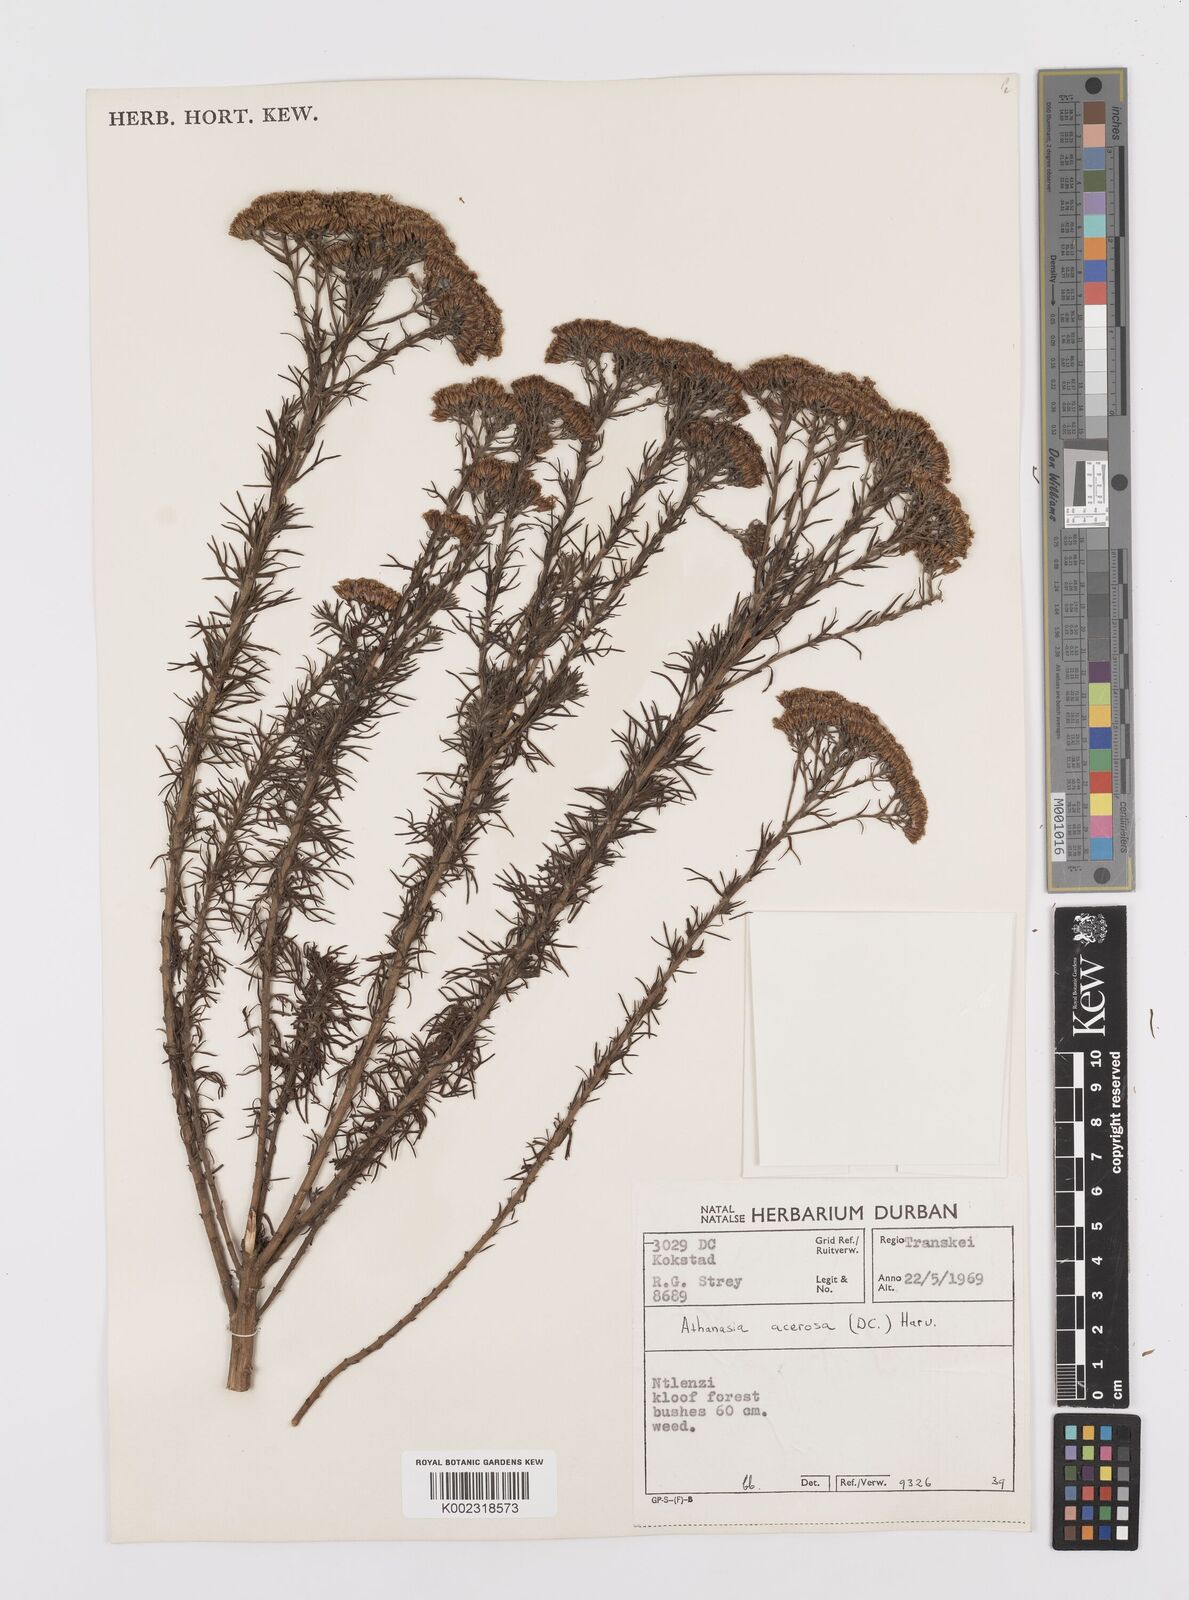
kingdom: Plantae
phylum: Tracheophyta
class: Magnoliopsida
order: Asterales
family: Asteraceae
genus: Phymaspermum
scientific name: Phymaspermum acerosum
